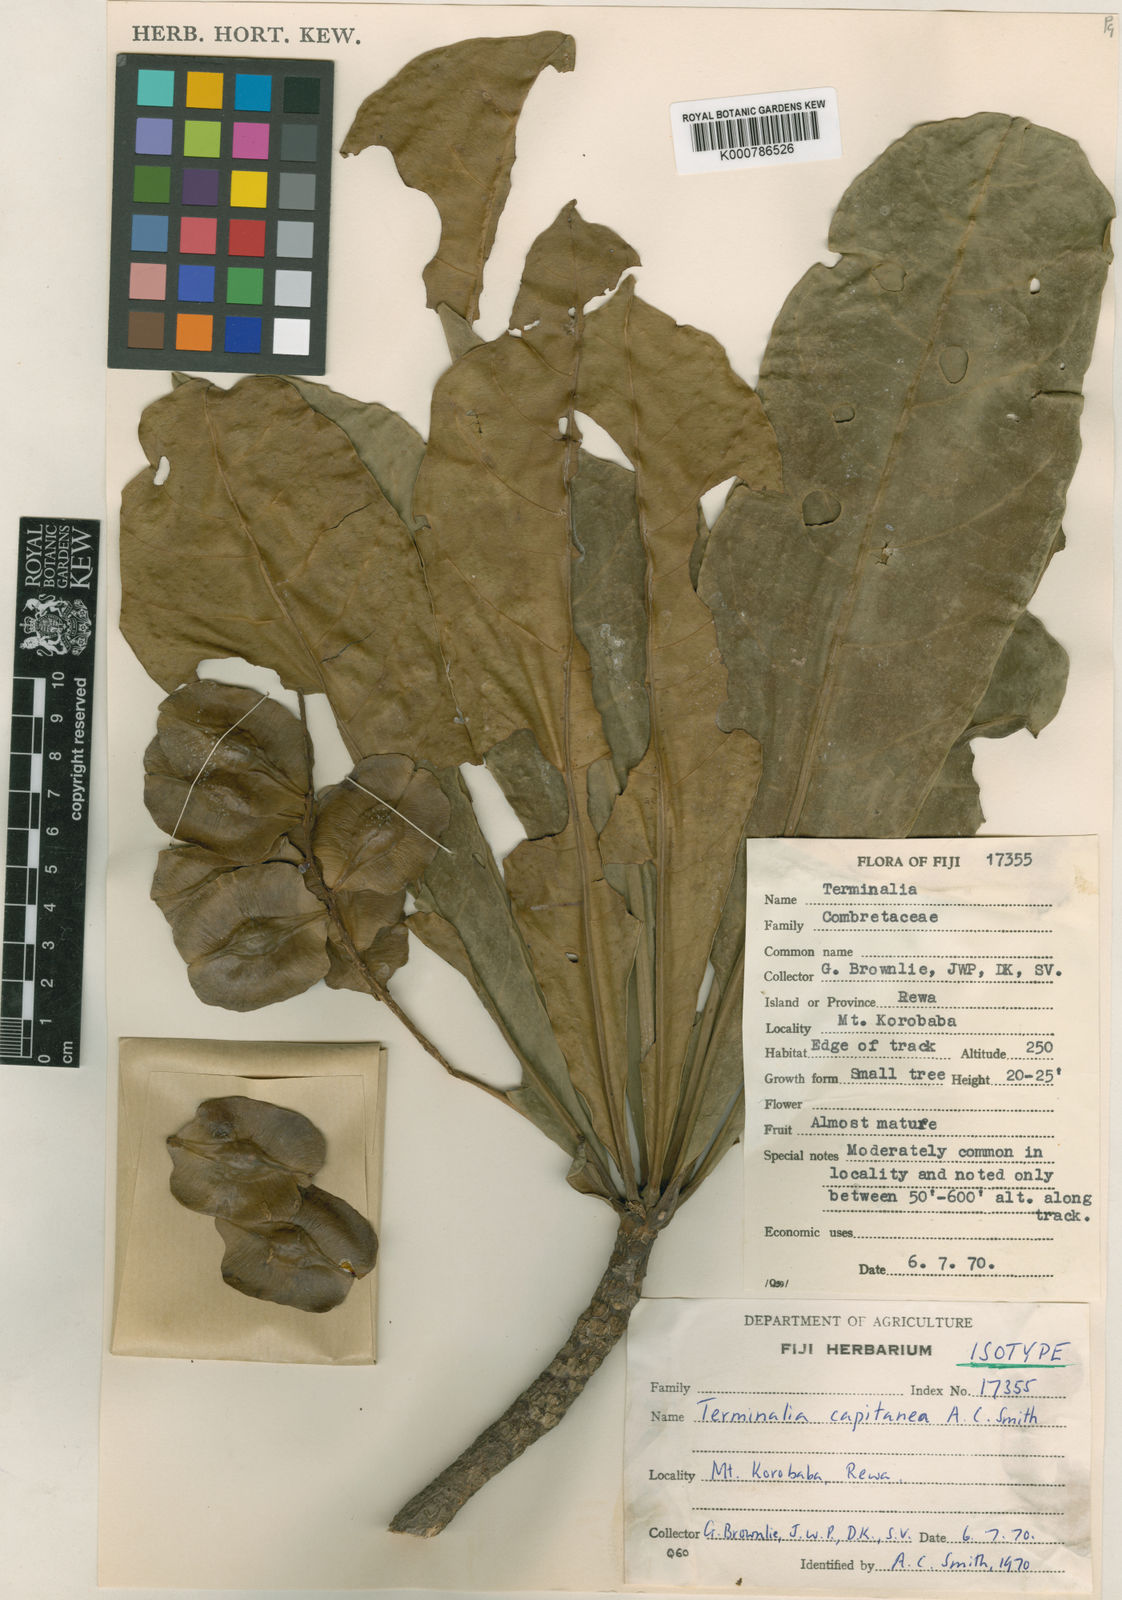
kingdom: Plantae
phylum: Tracheophyta
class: Magnoliopsida
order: Myrtales
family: Combretaceae
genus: Terminalia
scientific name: Terminalia capitanea
